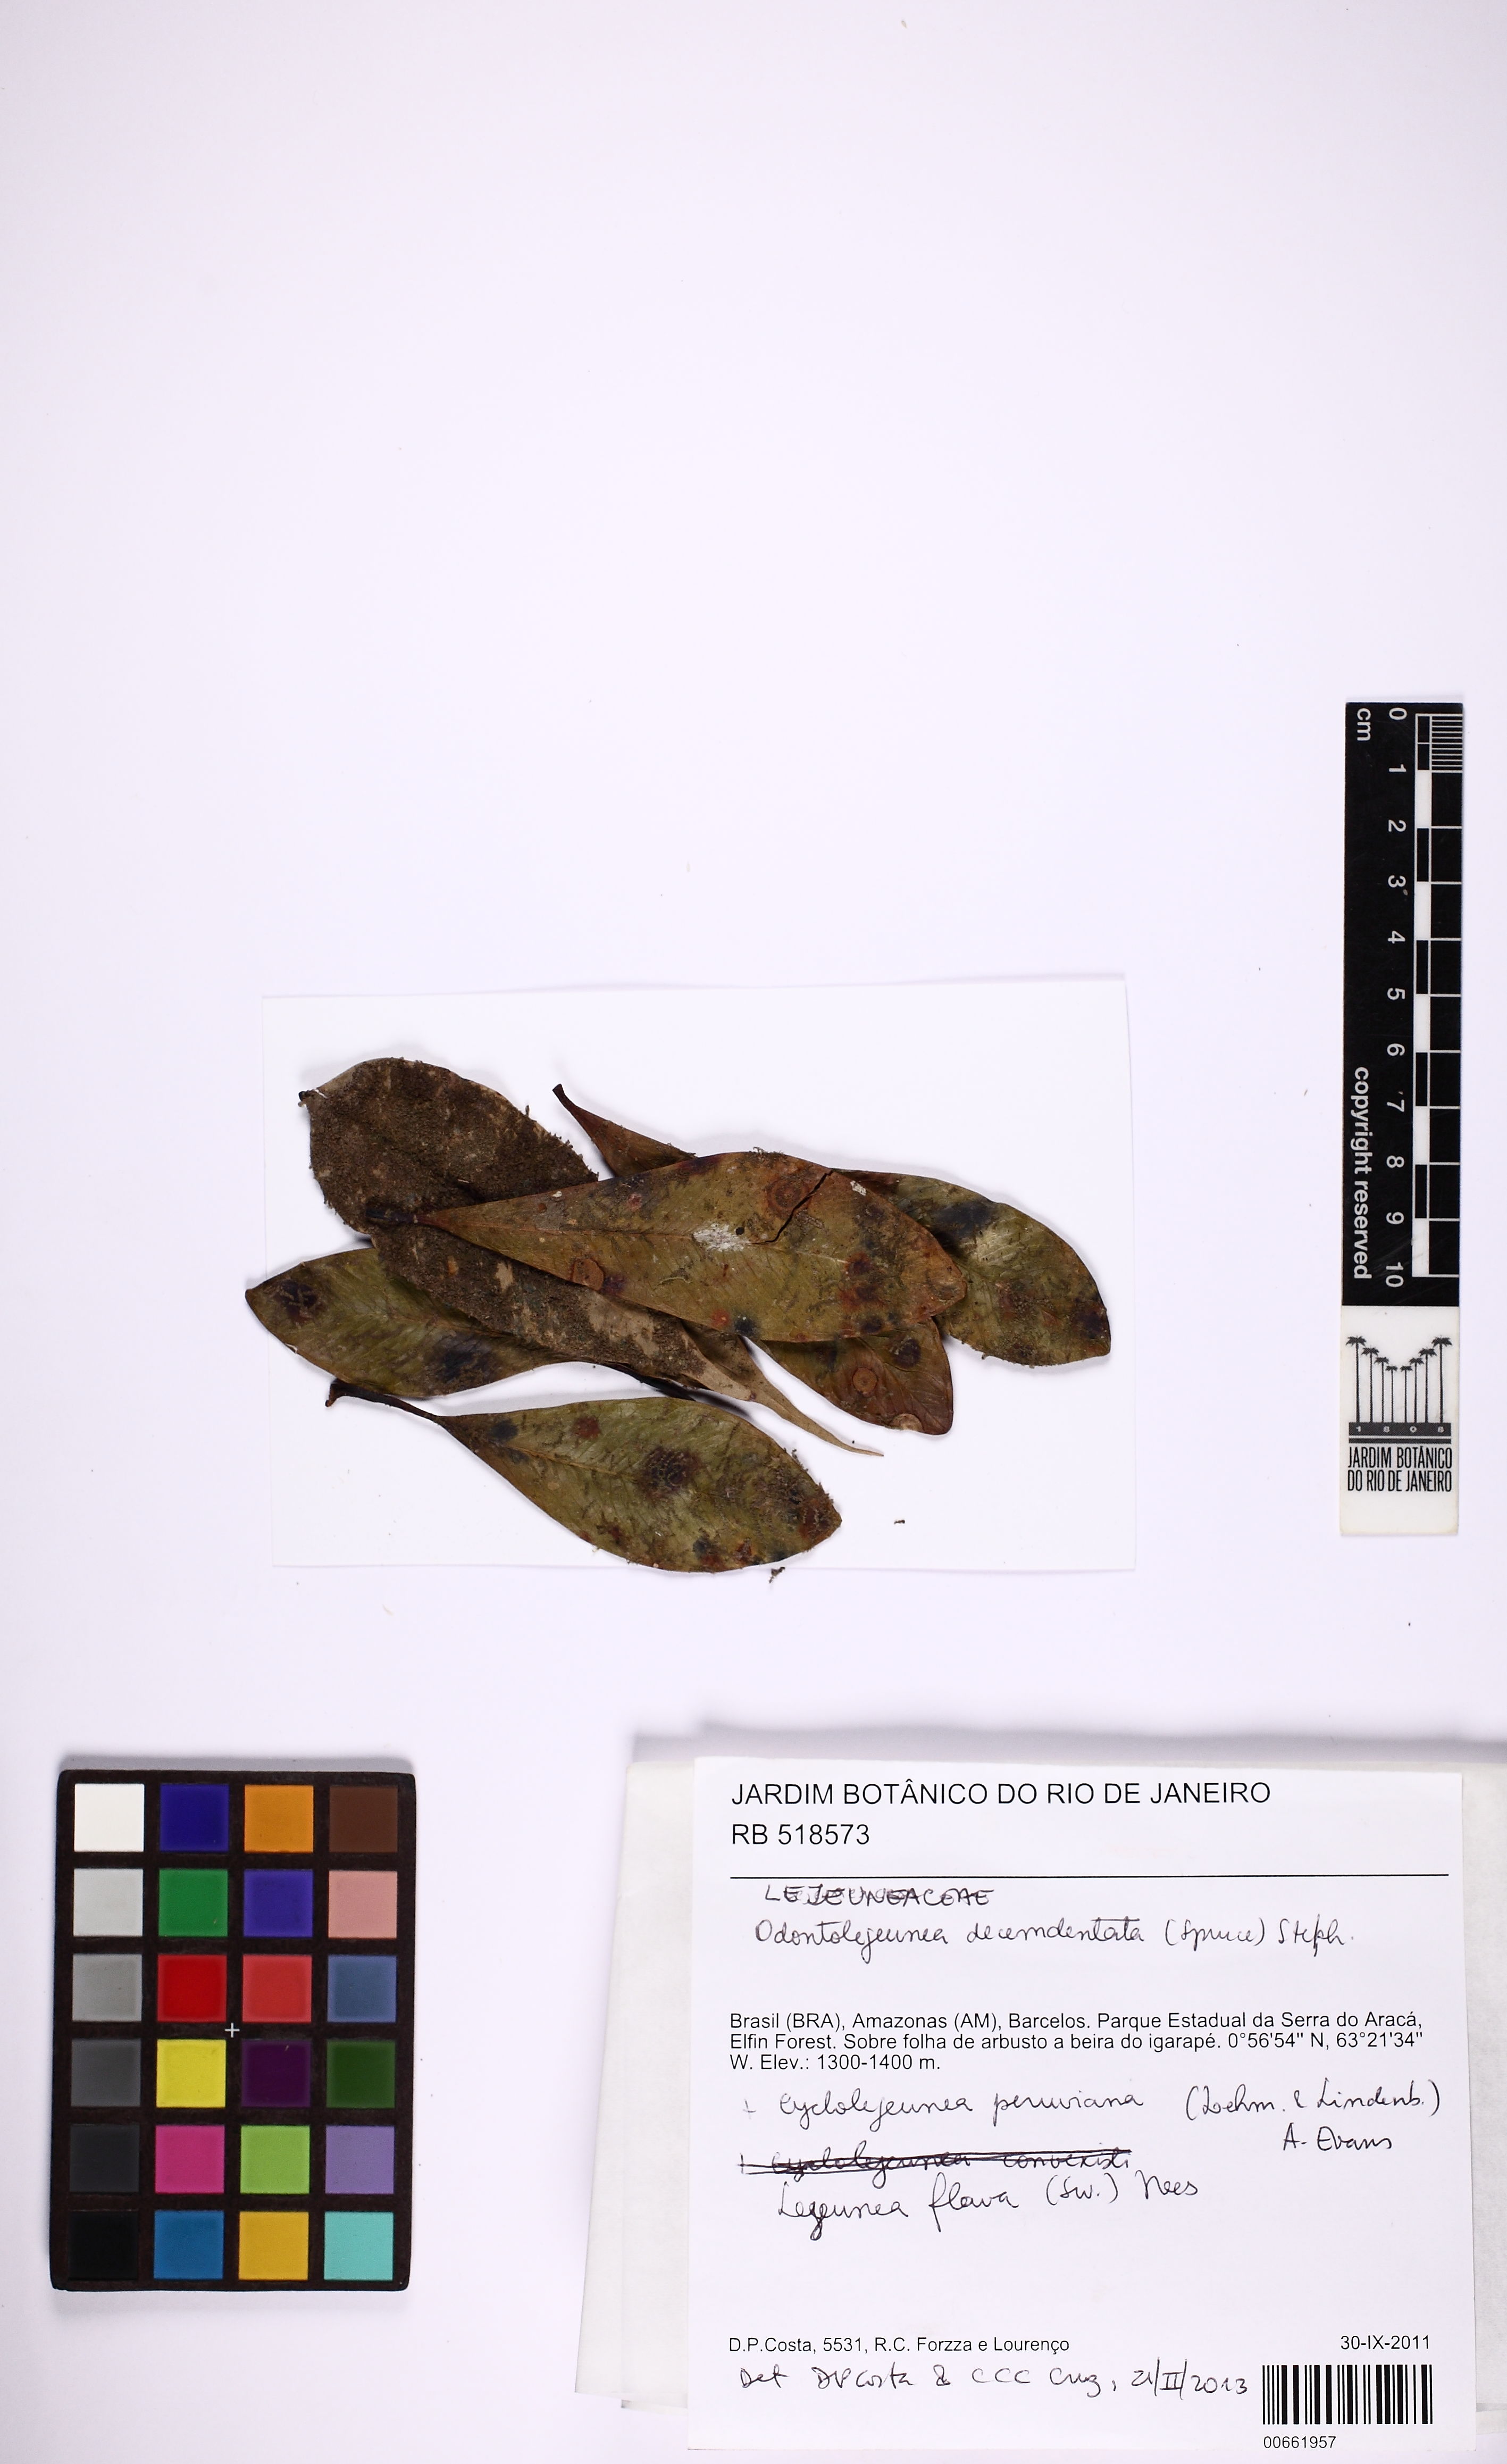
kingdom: Plantae
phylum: Marchantiophyta
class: Jungermanniopsida
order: Porellales
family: Lejeuneaceae
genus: Odontolejeunea
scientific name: Odontolejeunea decemdentata
